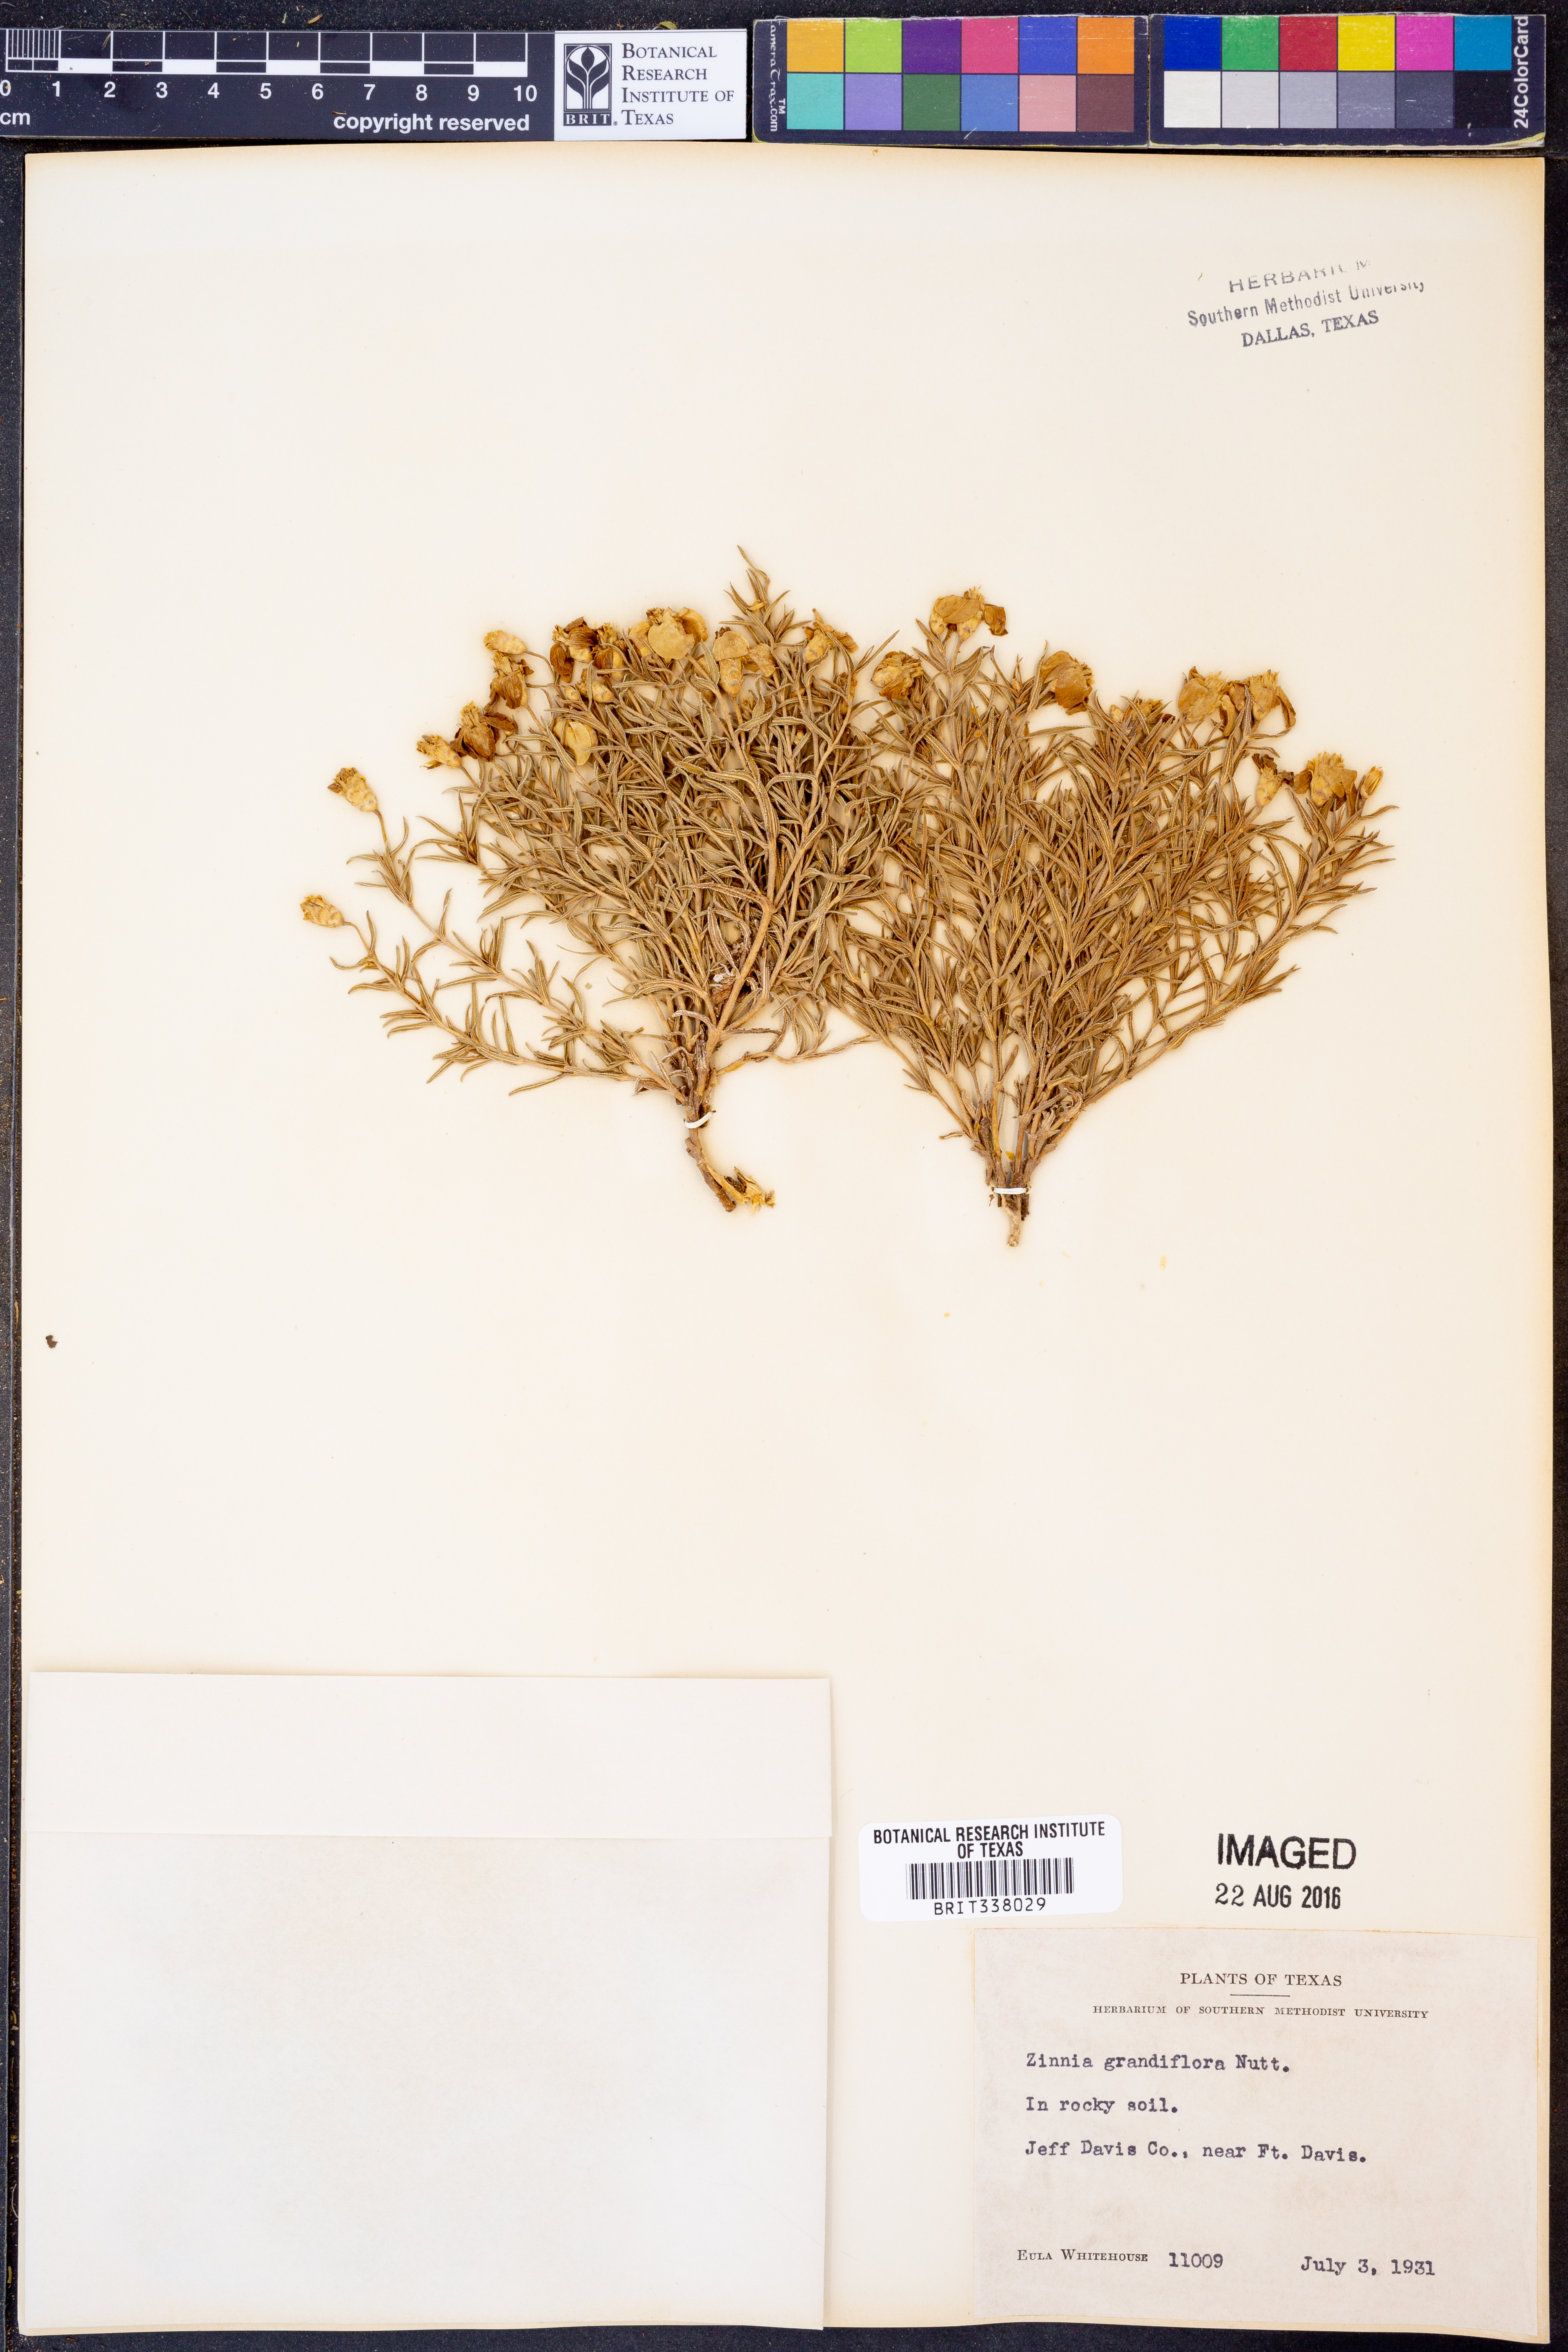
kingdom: Plantae
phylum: Tracheophyta
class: Magnoliopsida
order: Asterales
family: Asteraceae
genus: Zinnia
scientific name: Zinnia grandiflora
